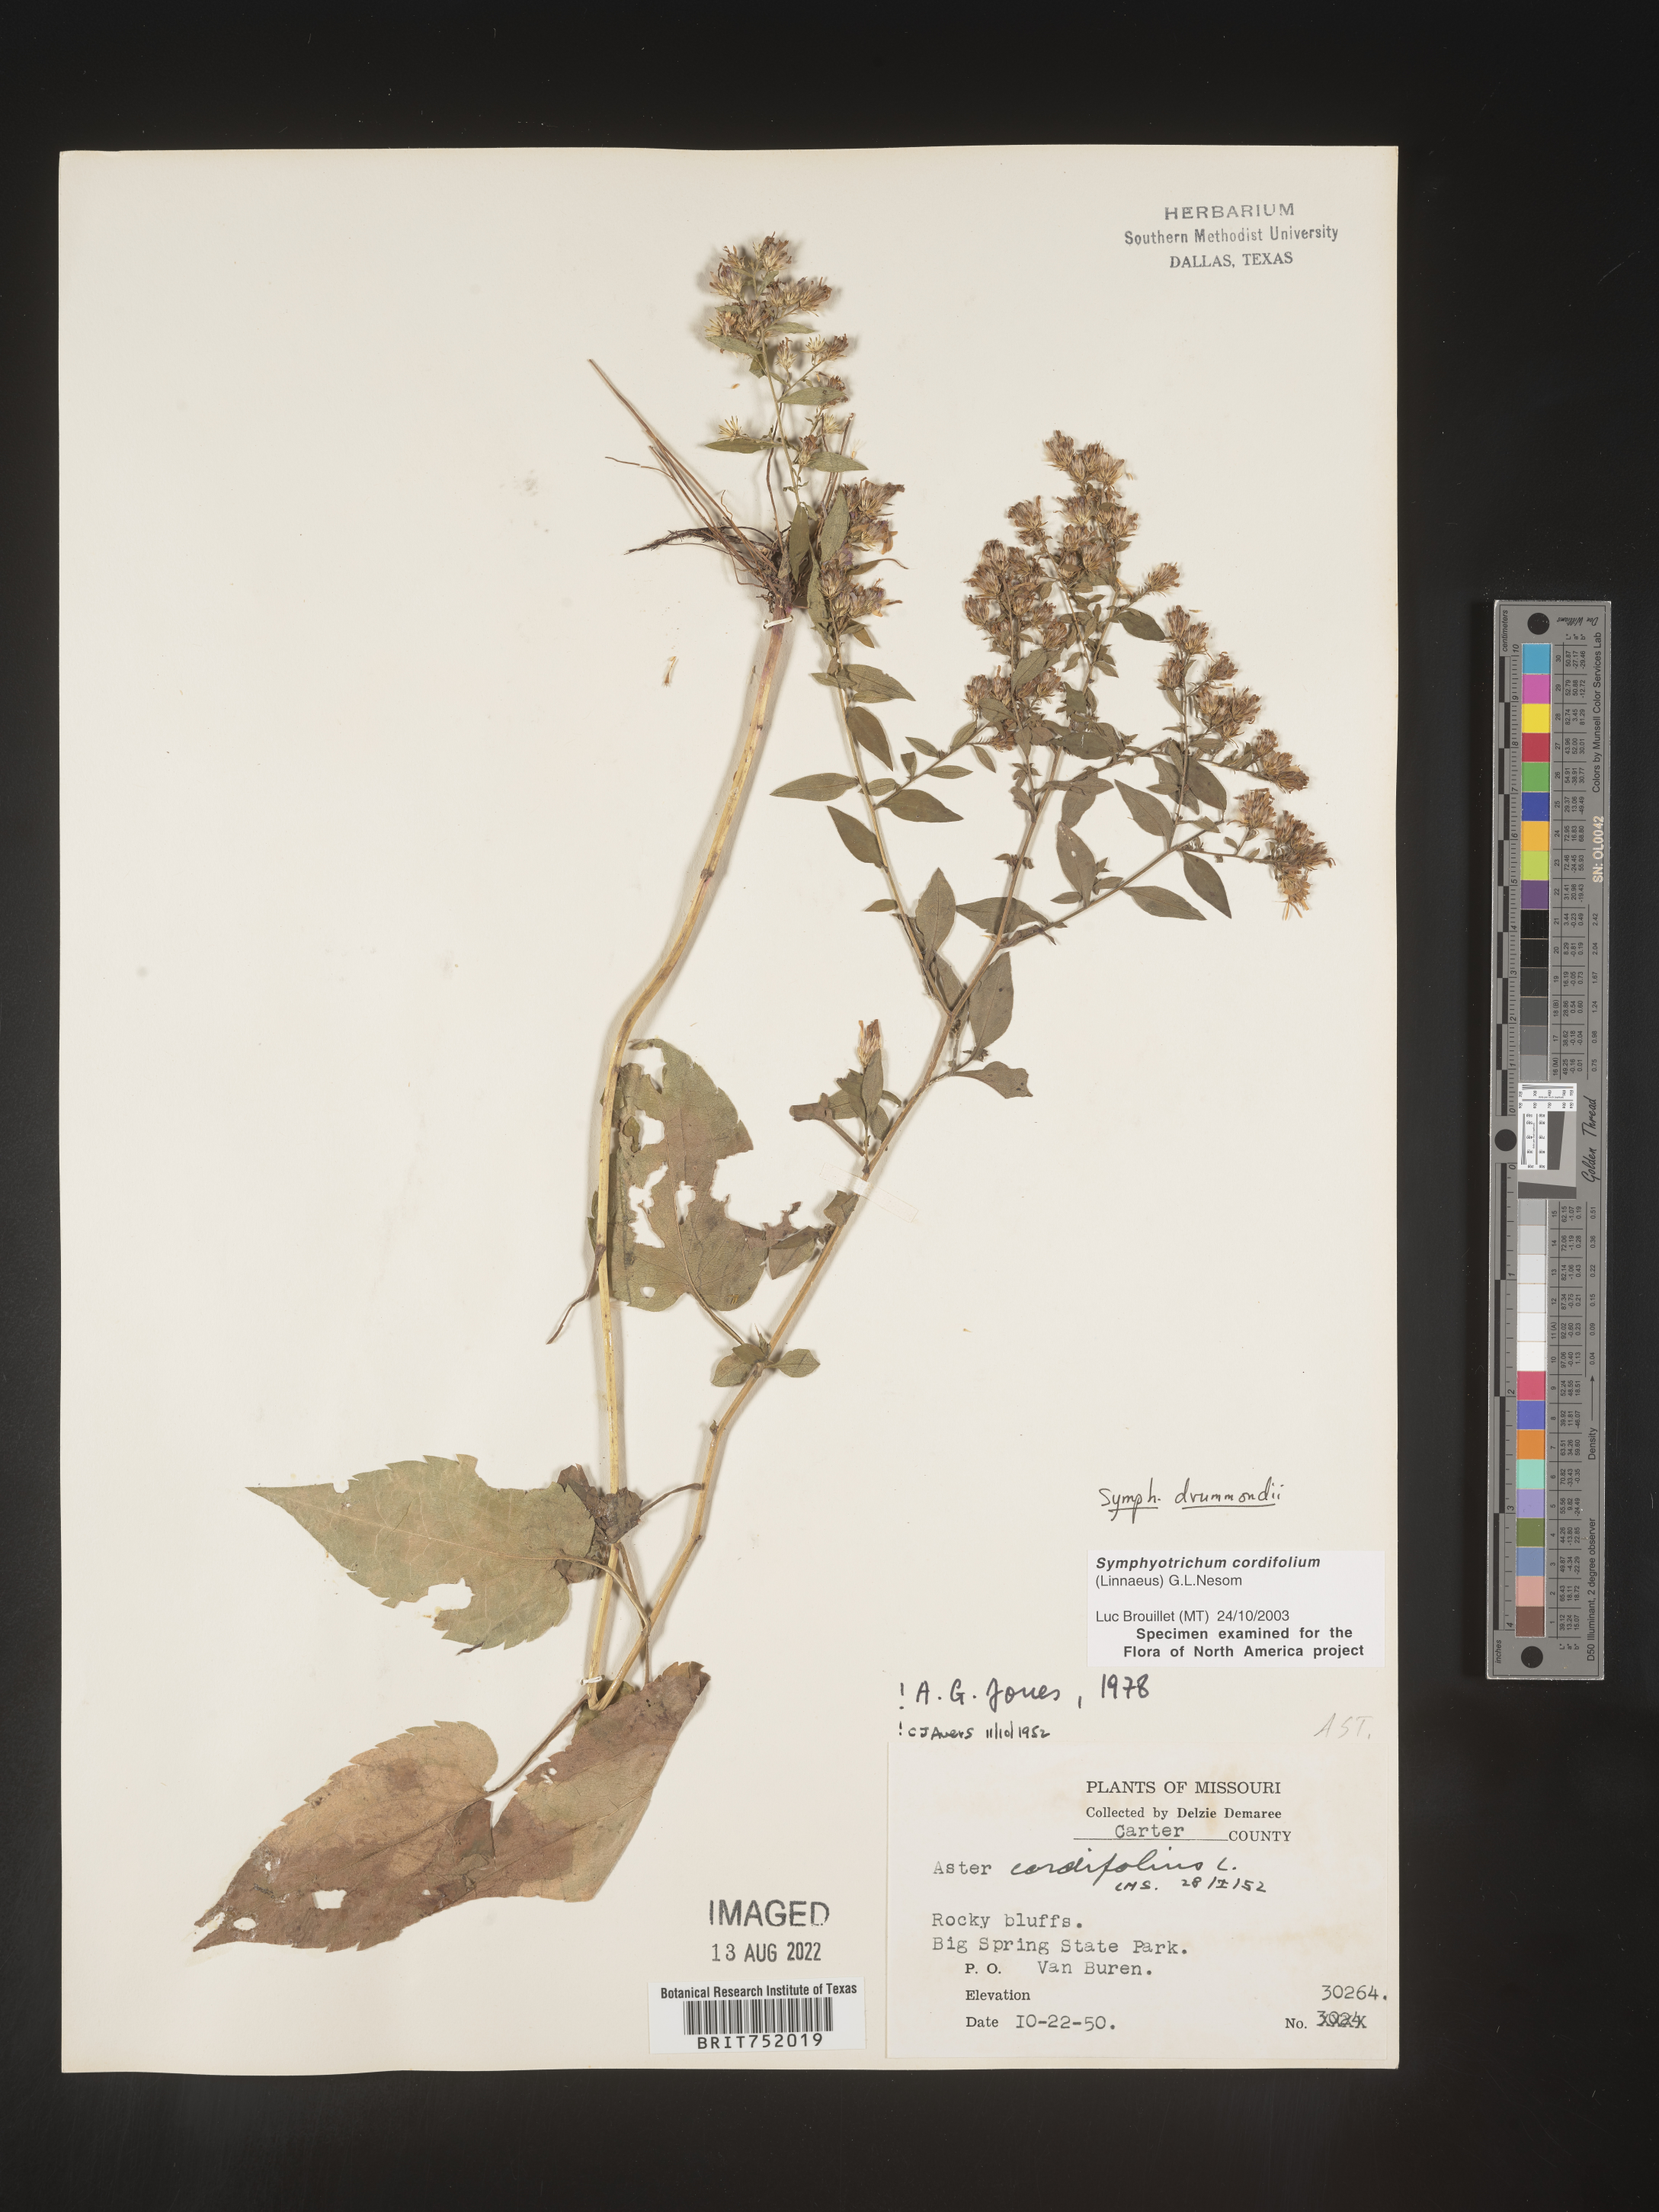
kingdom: Plantae
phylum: Tracheophyta
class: Magnoliopsida
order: Asterales
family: Asteraceae
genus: Symphyotrichum
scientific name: Symphyotrichum drummondii
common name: Drummond's aster
